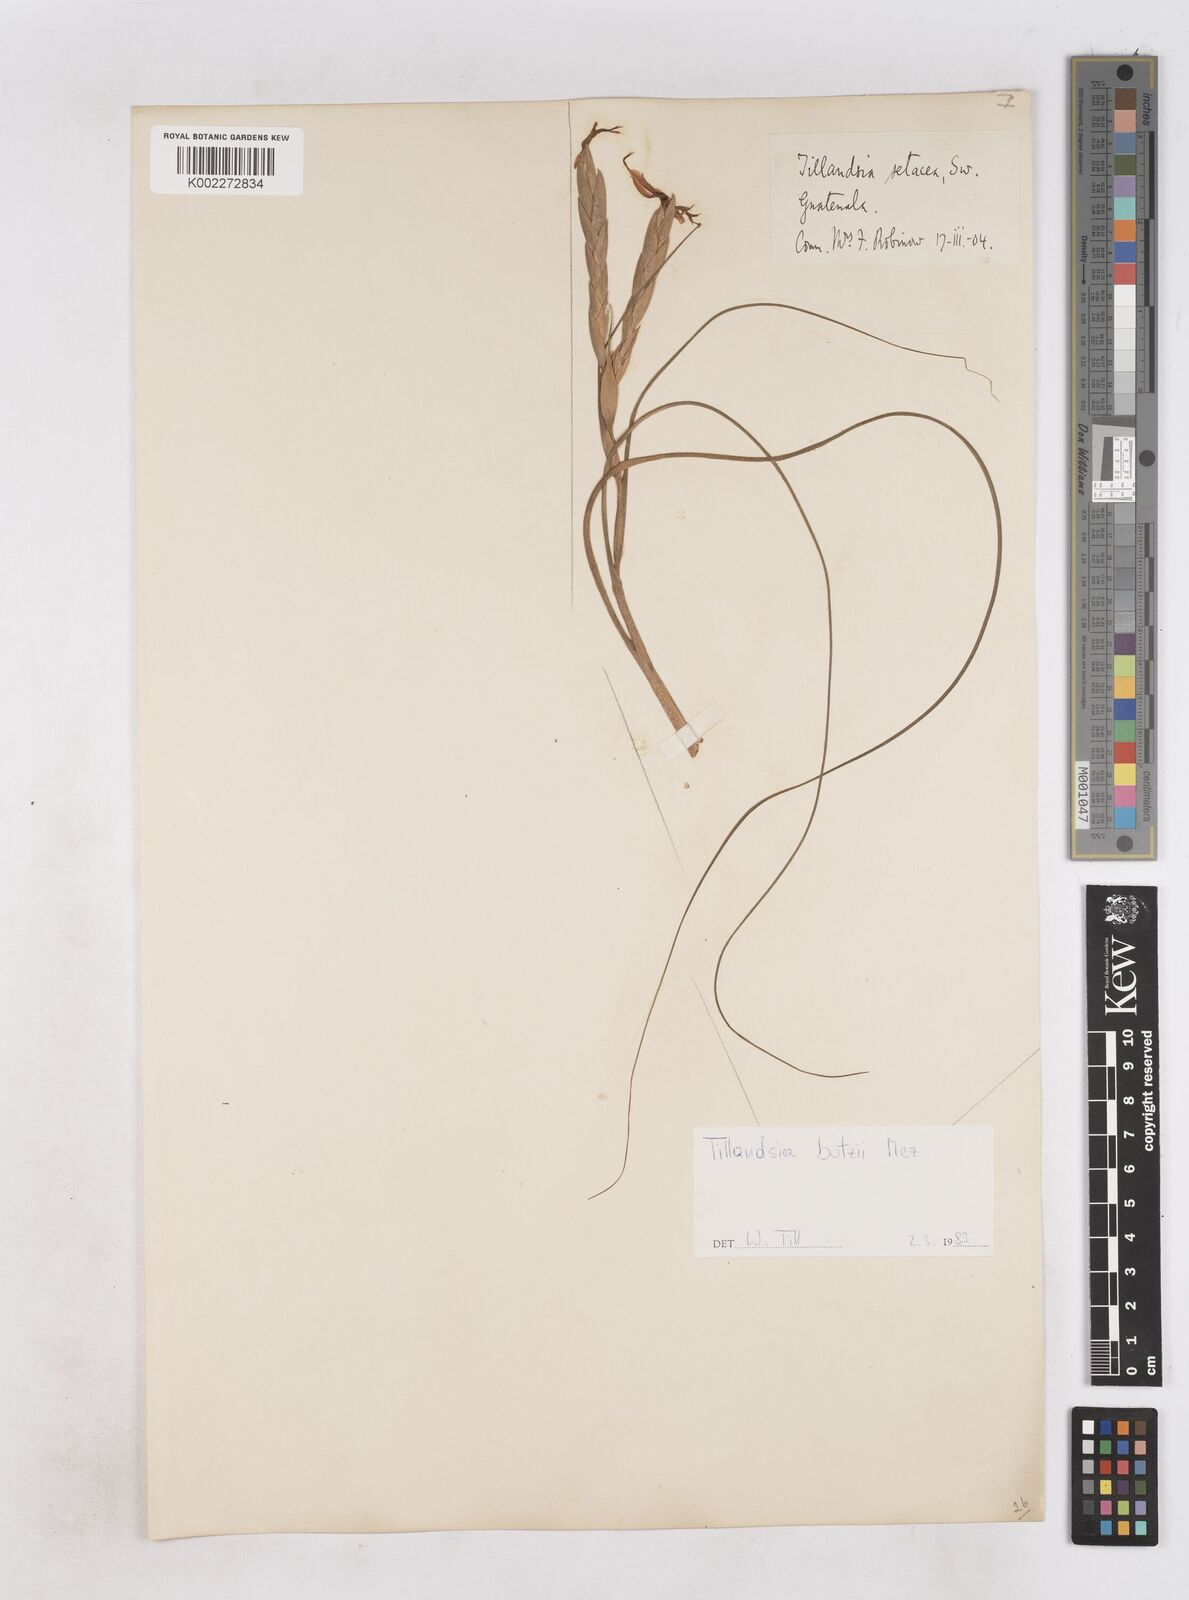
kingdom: Plantae
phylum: Tracheophyta
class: Liliopsida
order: Poales
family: Bromeliaceae
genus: Tillandsia
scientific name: Tillandsia butzii
